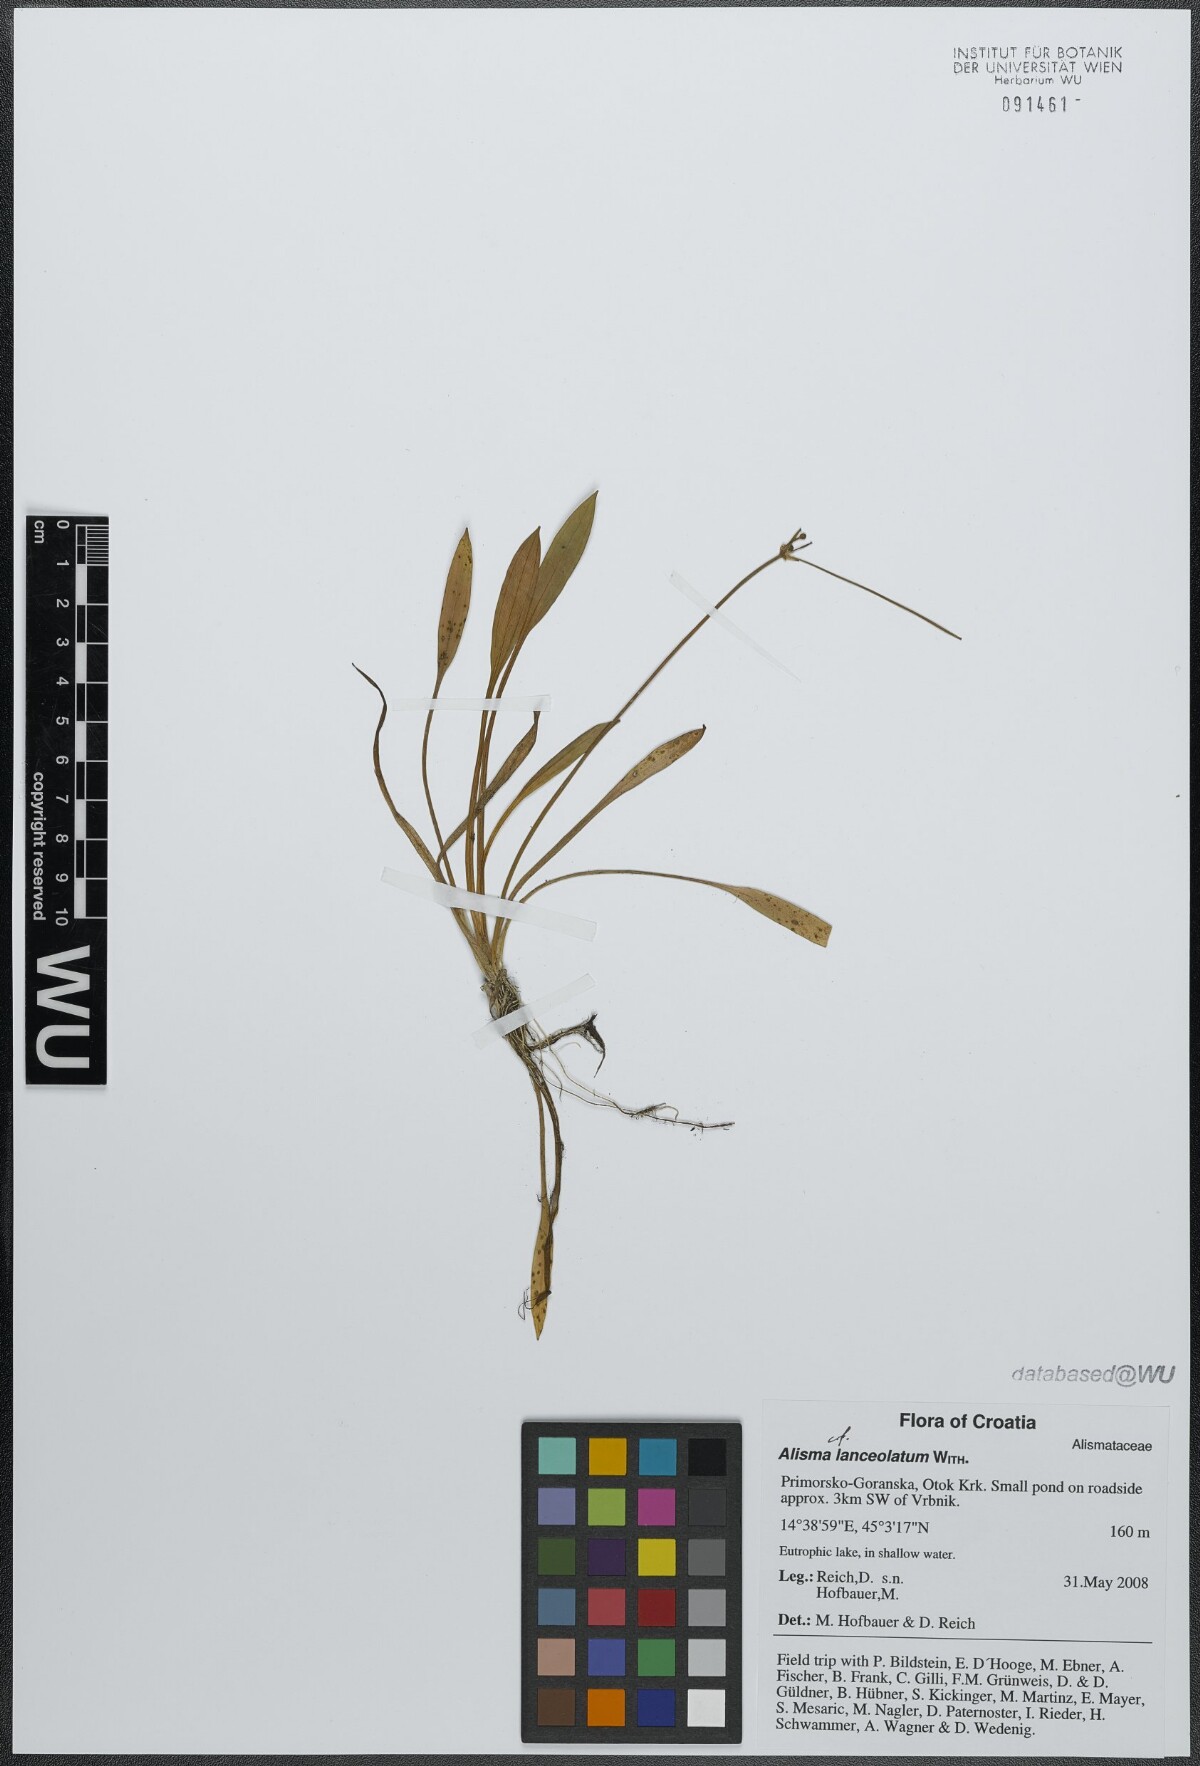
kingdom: Plantae
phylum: Tracheophyta
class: Liliopsida
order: Alismatales
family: Alismataceae
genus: Alisma
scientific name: Alisma lanceolatum
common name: Narrow-leaved water-plantain
